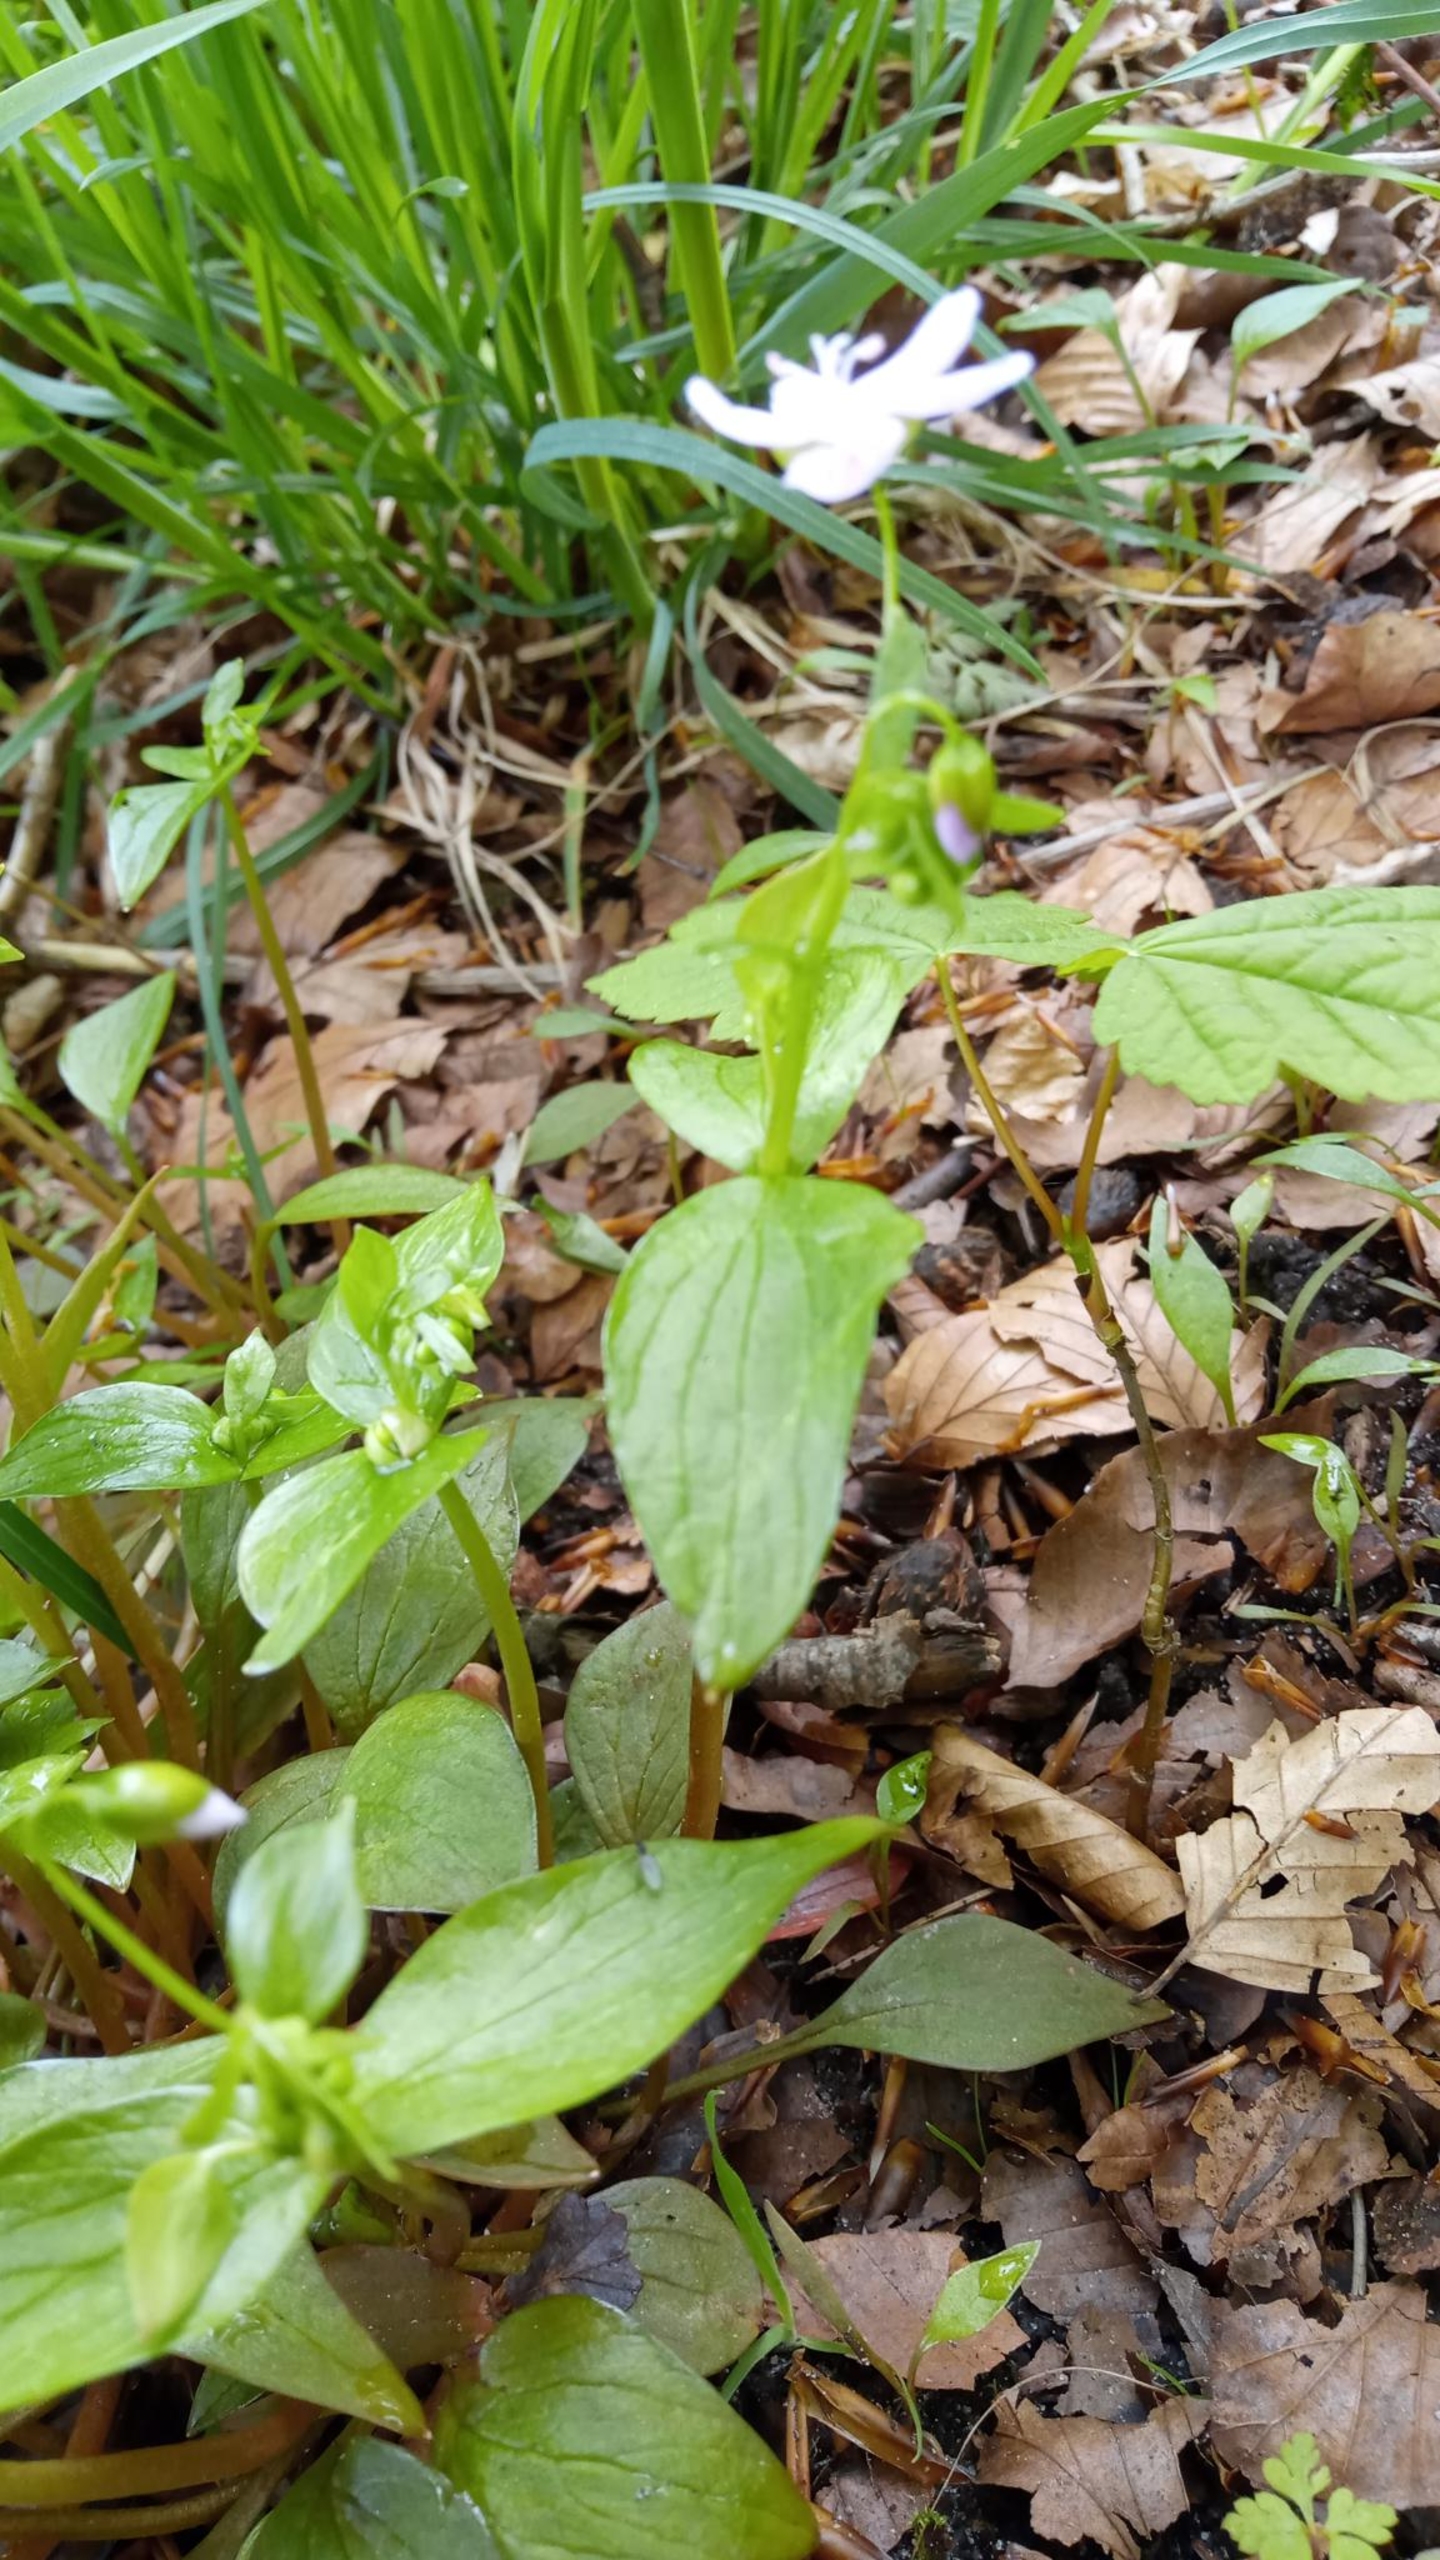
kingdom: Plantae
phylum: Tracheophyta
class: Magnoliopsida
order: Caryophyllales
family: Montiaceae
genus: Claytonia
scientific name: Claytonia sibirica
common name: Sibirisk vinterportulak
